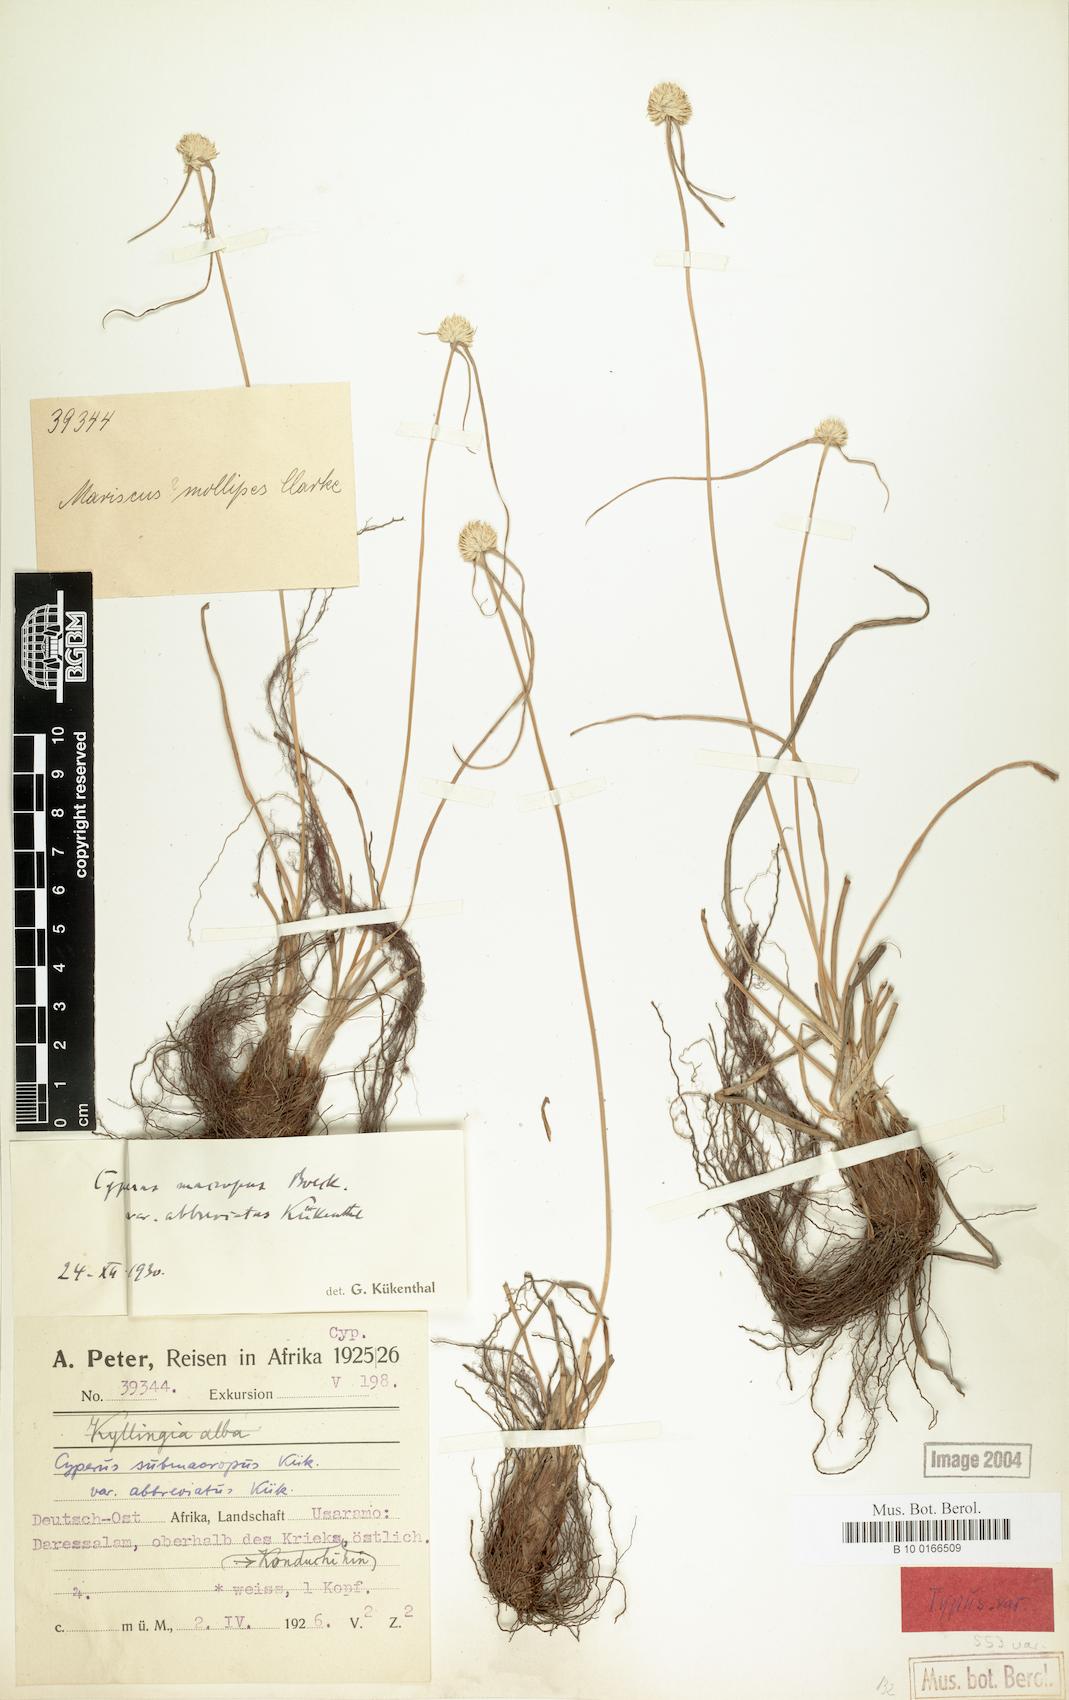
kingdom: Plantae
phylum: Tracheophyta
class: Liliopsida
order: Poales
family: Cyperaceae
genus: Cyperus
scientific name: Cyperus mollipes
